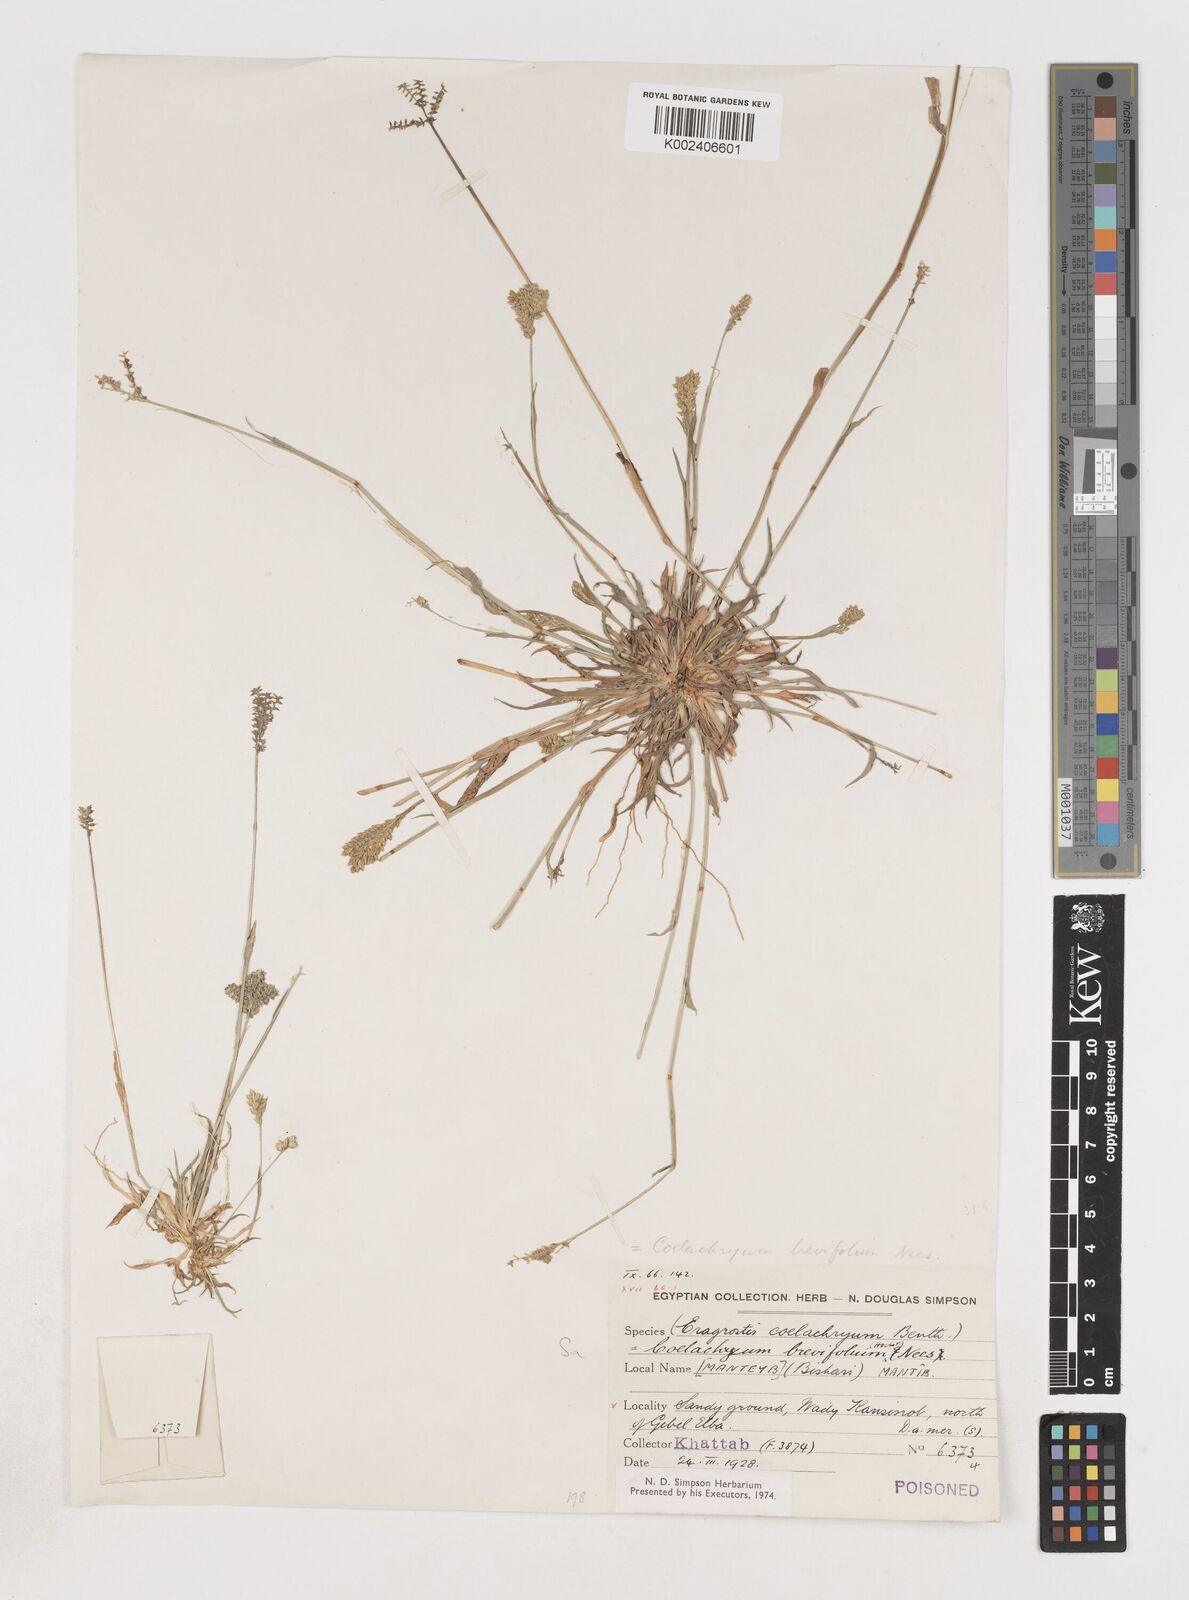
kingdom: Plantae
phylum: Tracheophyta
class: Liliopsida
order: Poales
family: Poaceae
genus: Coelachyrum
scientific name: Coelachyrum brevifolium
